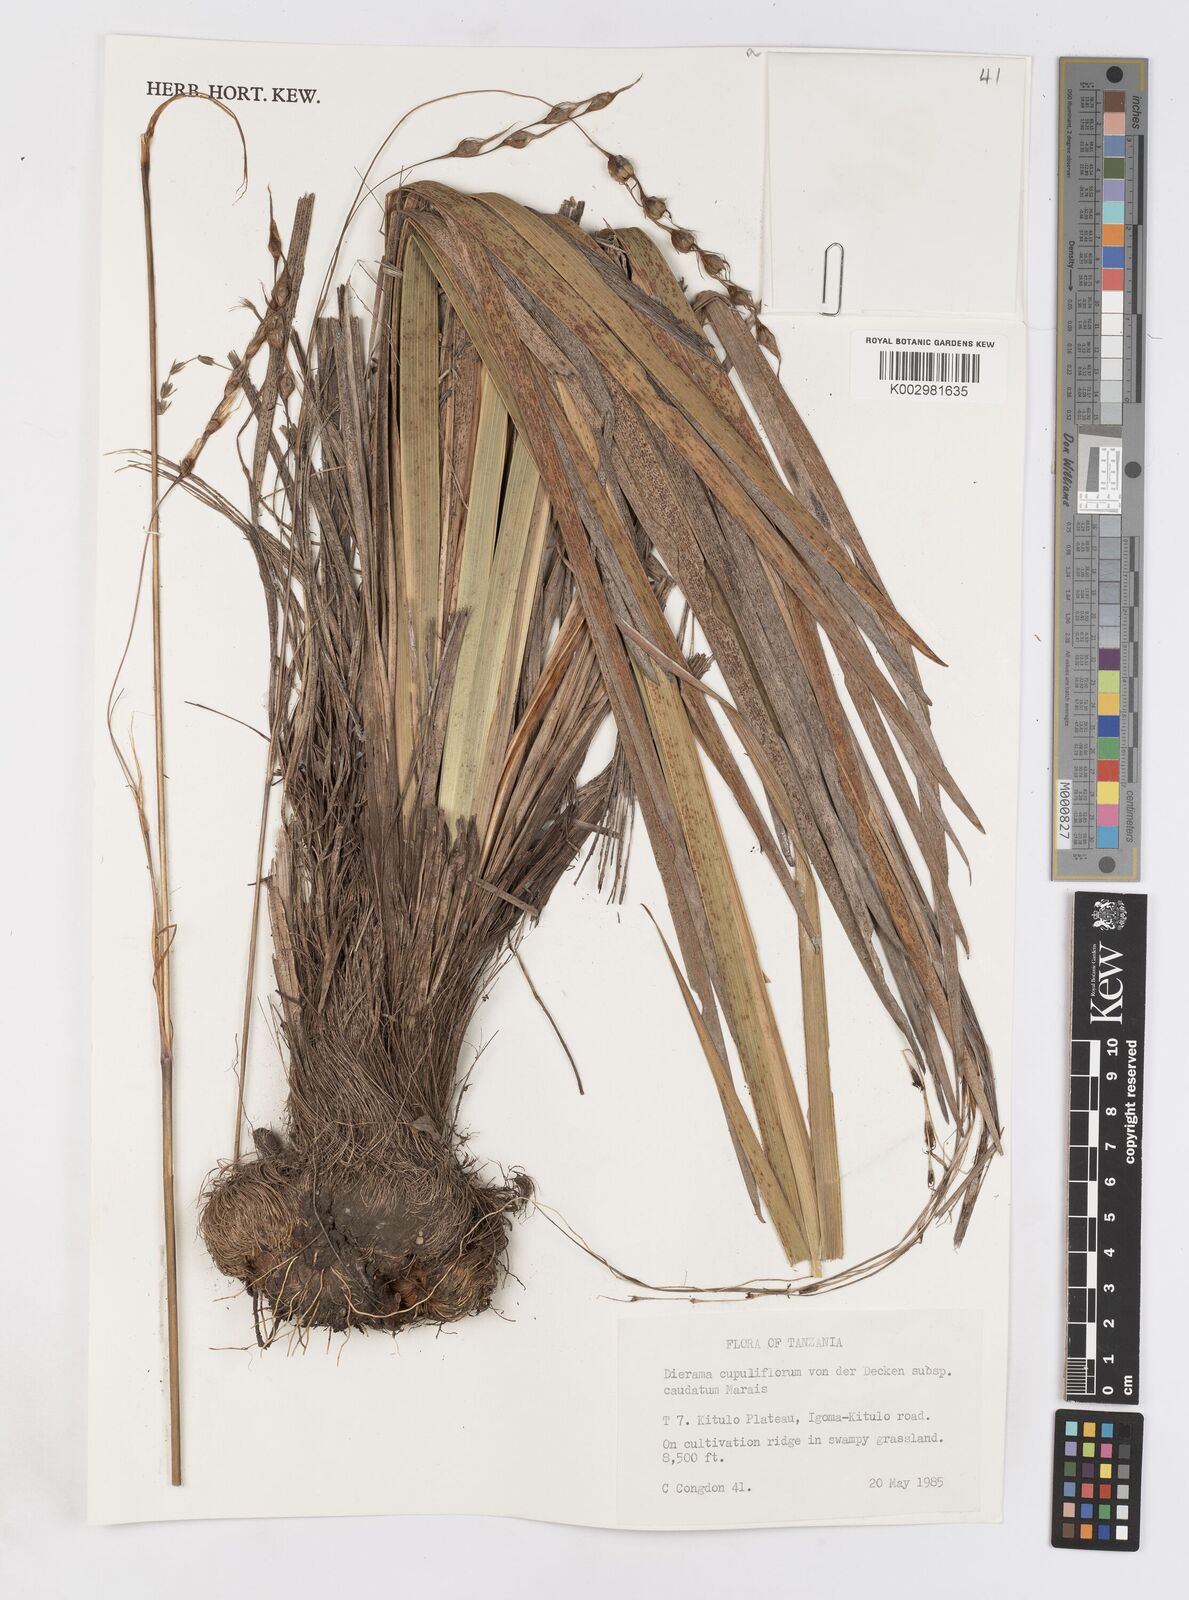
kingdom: Plantae
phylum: Tracheophyta
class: Liliopsida
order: Asparagales
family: Iridaceae
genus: Dierama
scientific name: Dierama cupuliflorum
